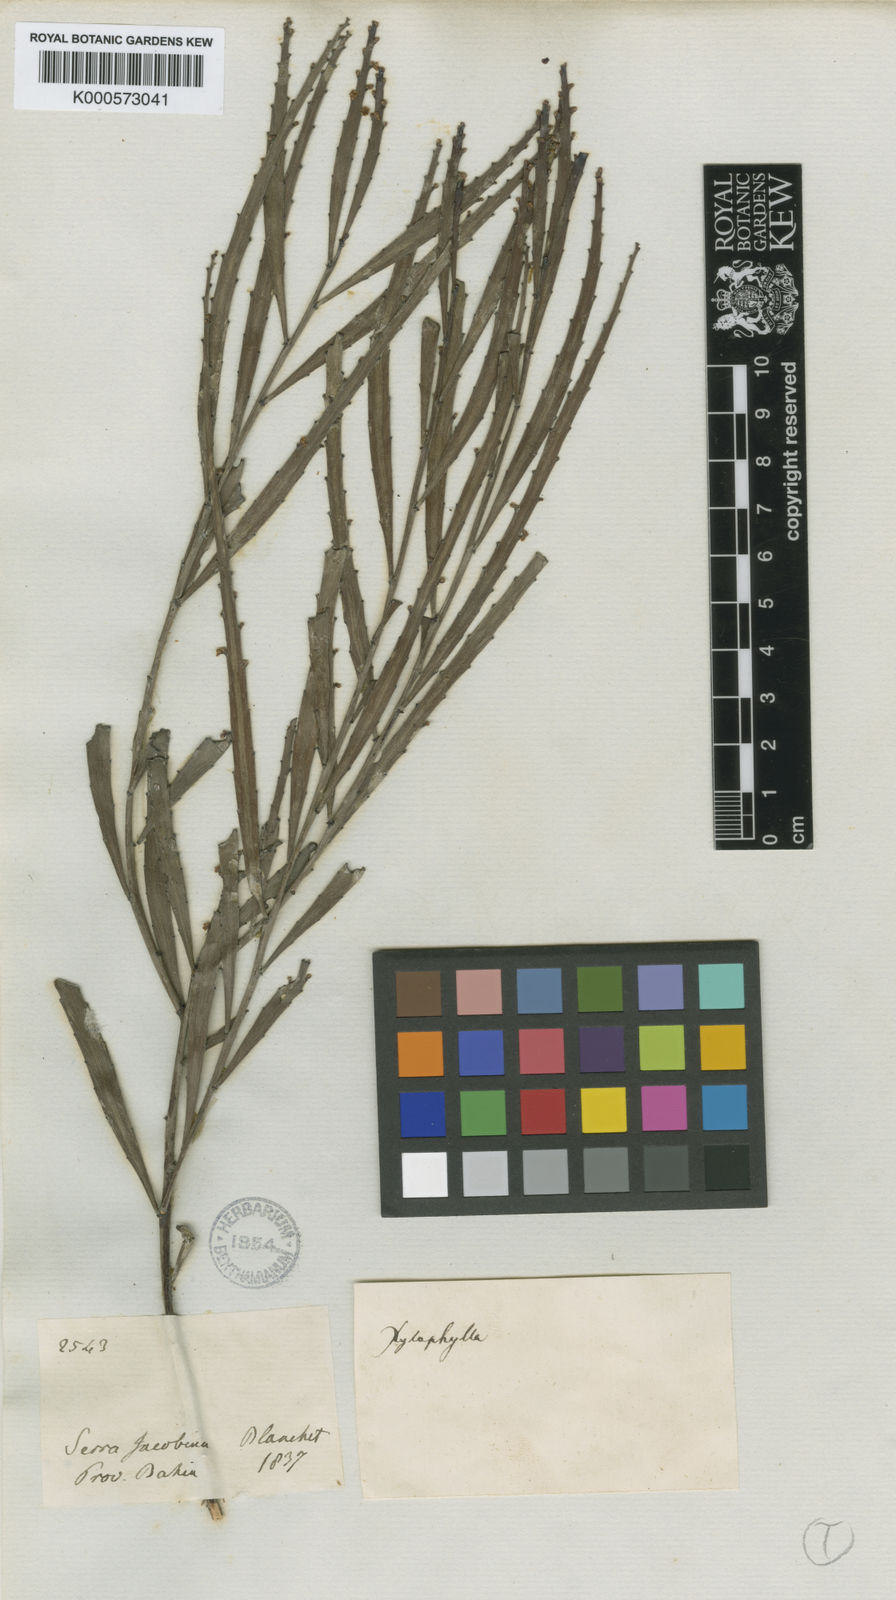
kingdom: Plantae
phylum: Tracheophyta
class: Magnoliopsida
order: Malpighiales
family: Phyllanthaceae
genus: Phyllanthus
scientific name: Phyllanthus
